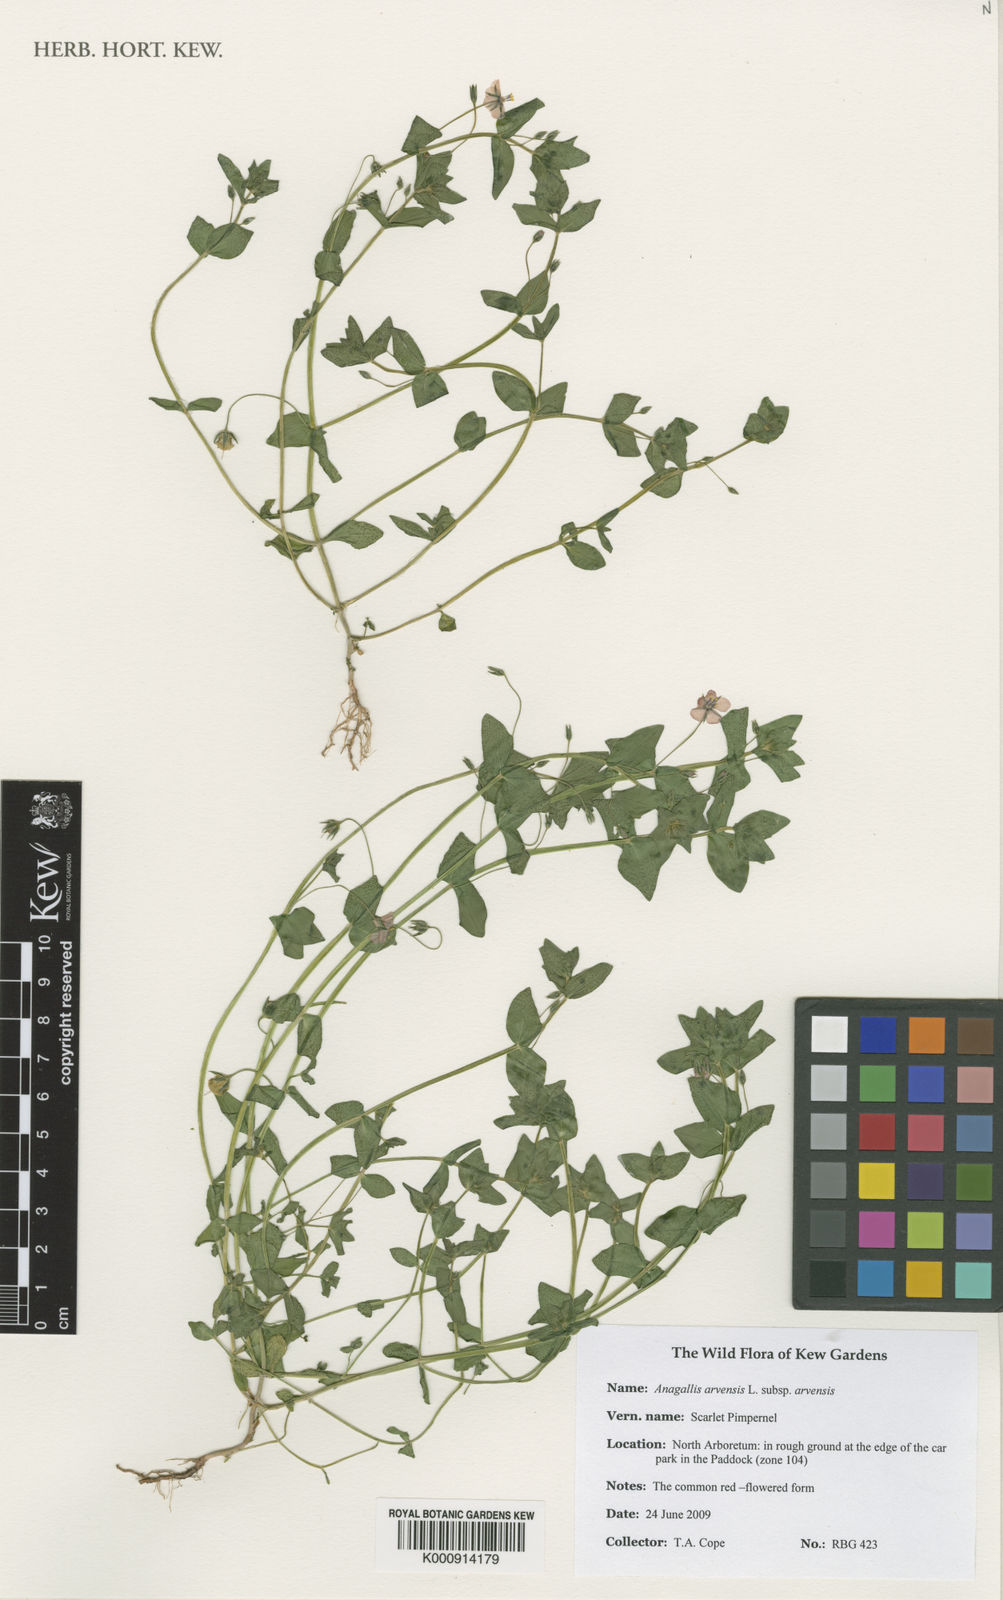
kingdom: Plantae
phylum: Tracheophyta
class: Magnoliopsida
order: Ericales
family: Primulaceae
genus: Lysimachia
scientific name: Lysimachia arvensis
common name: Scarlet pimpernel
